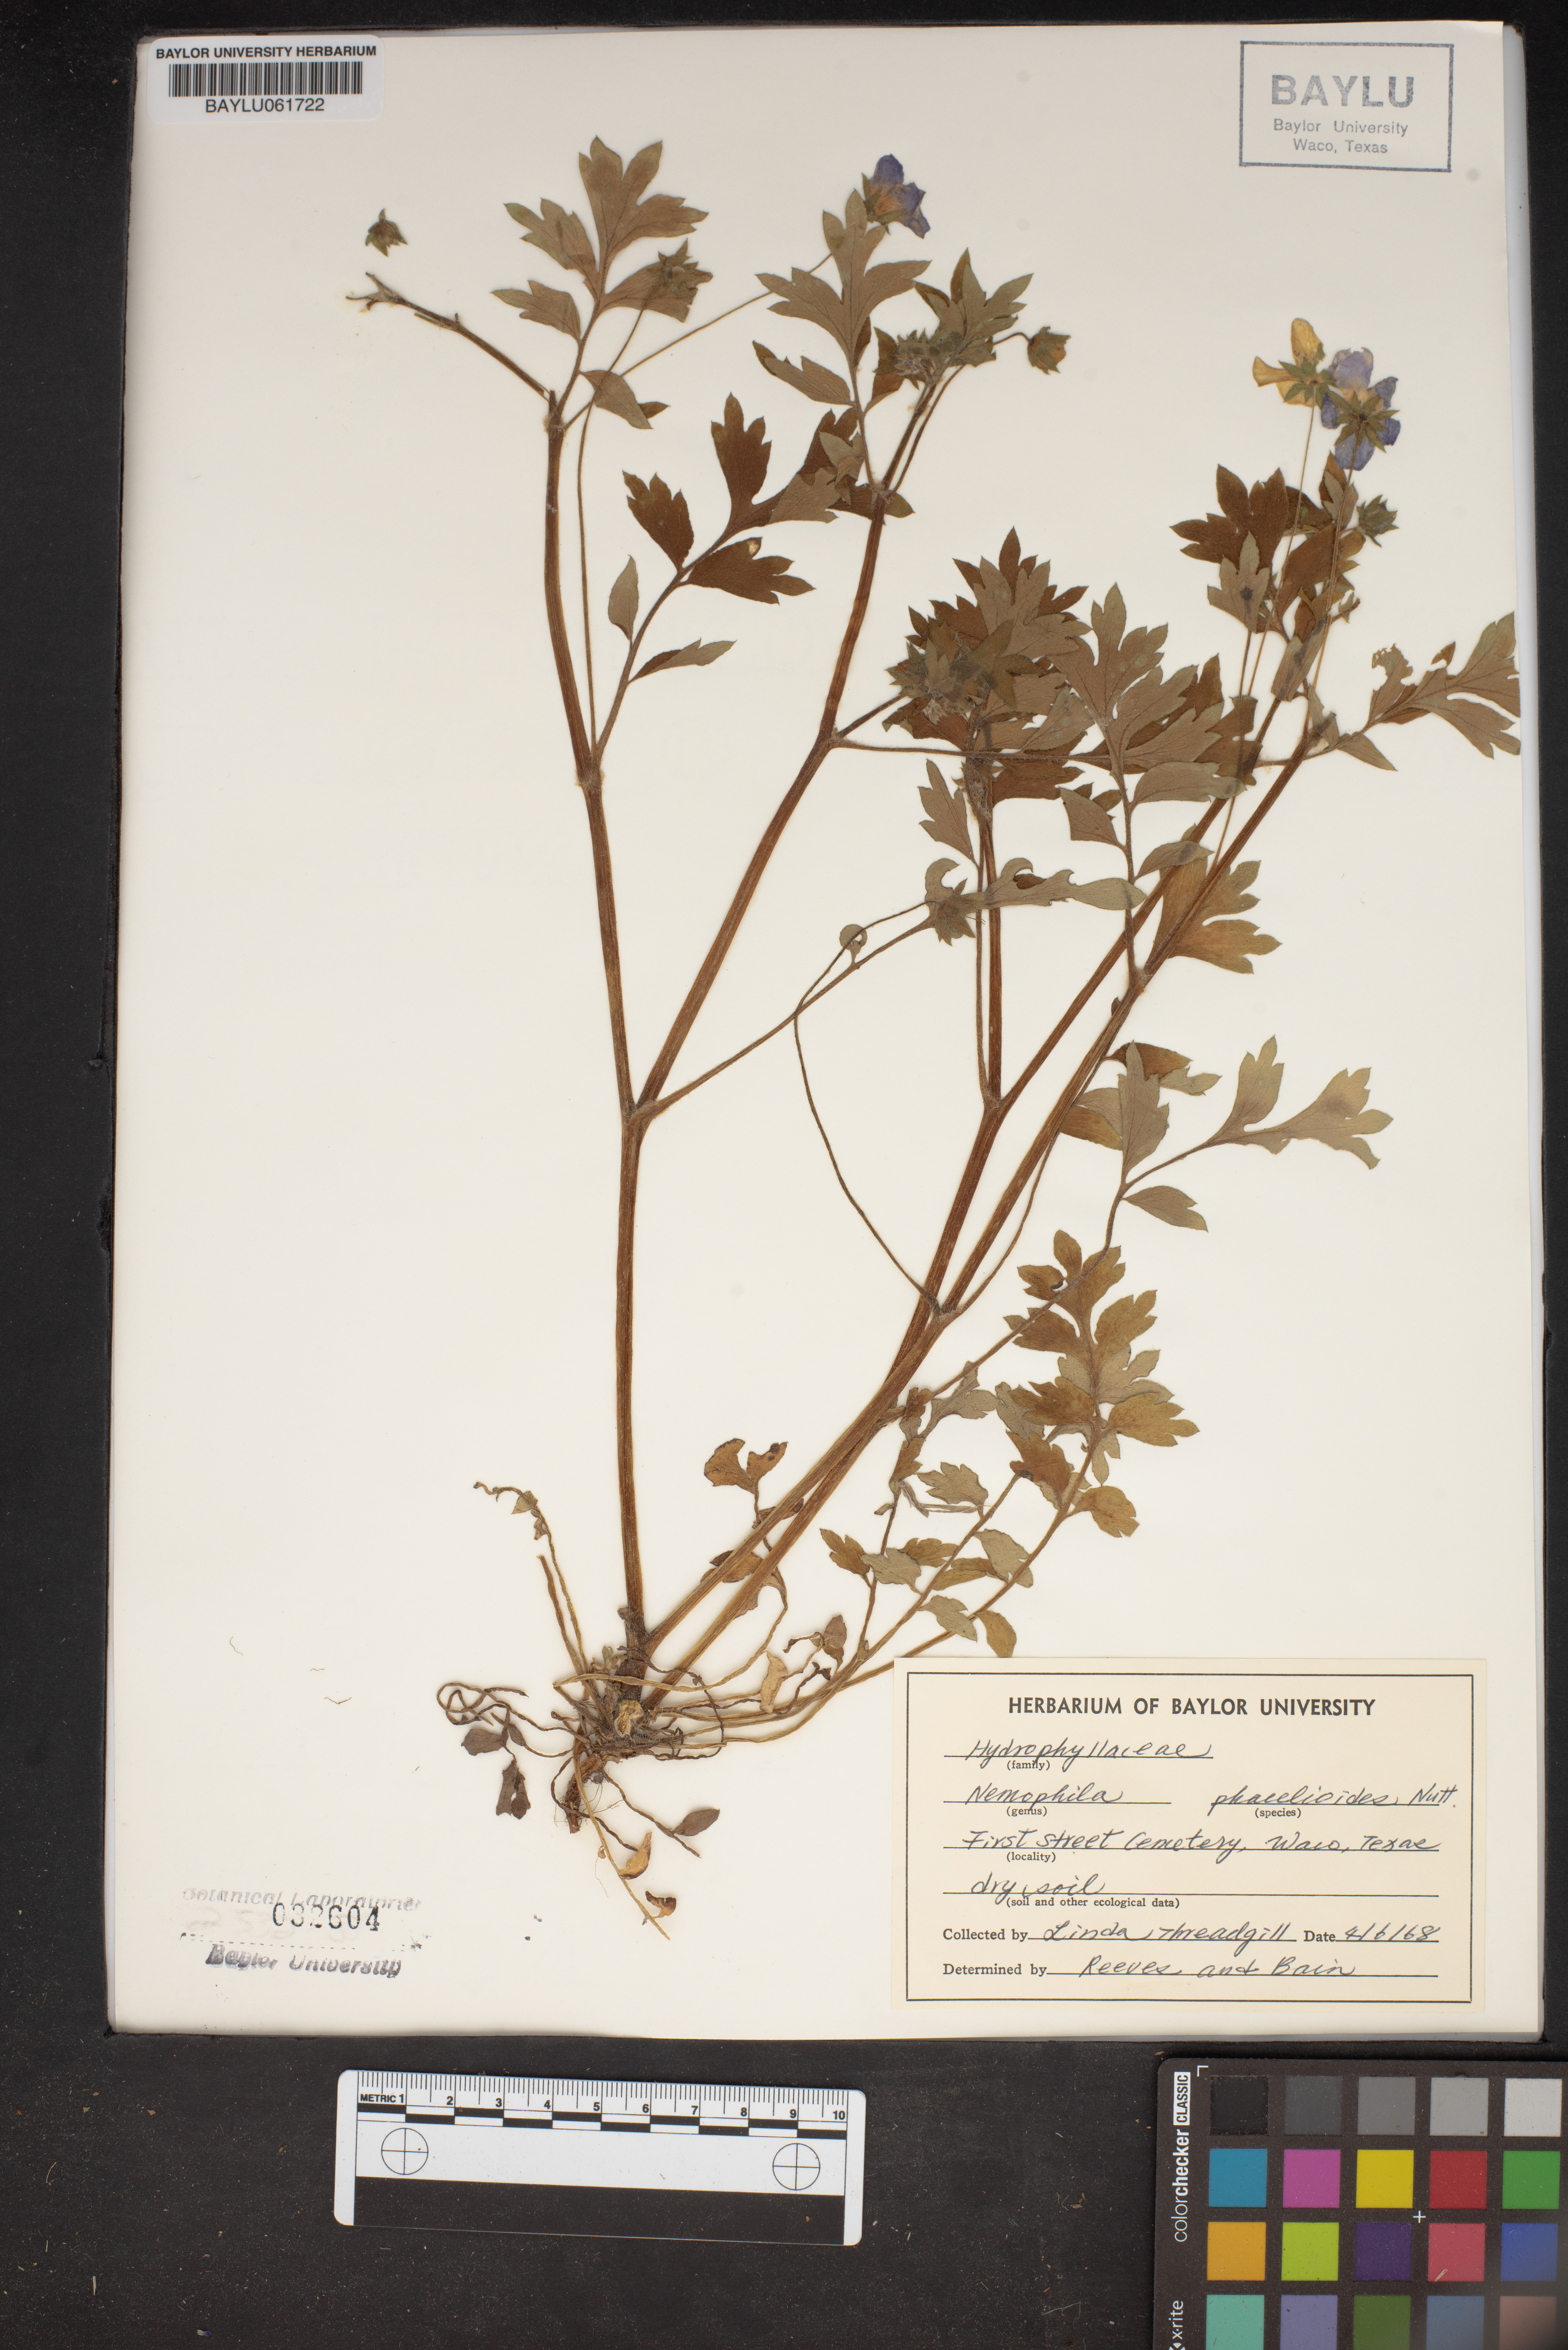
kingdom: Plantae
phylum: Tracheophyta
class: Magnoliopsida
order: Boraginales
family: Hydrophyllaceae
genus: Nemophila
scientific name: Nemophila phacelioides
